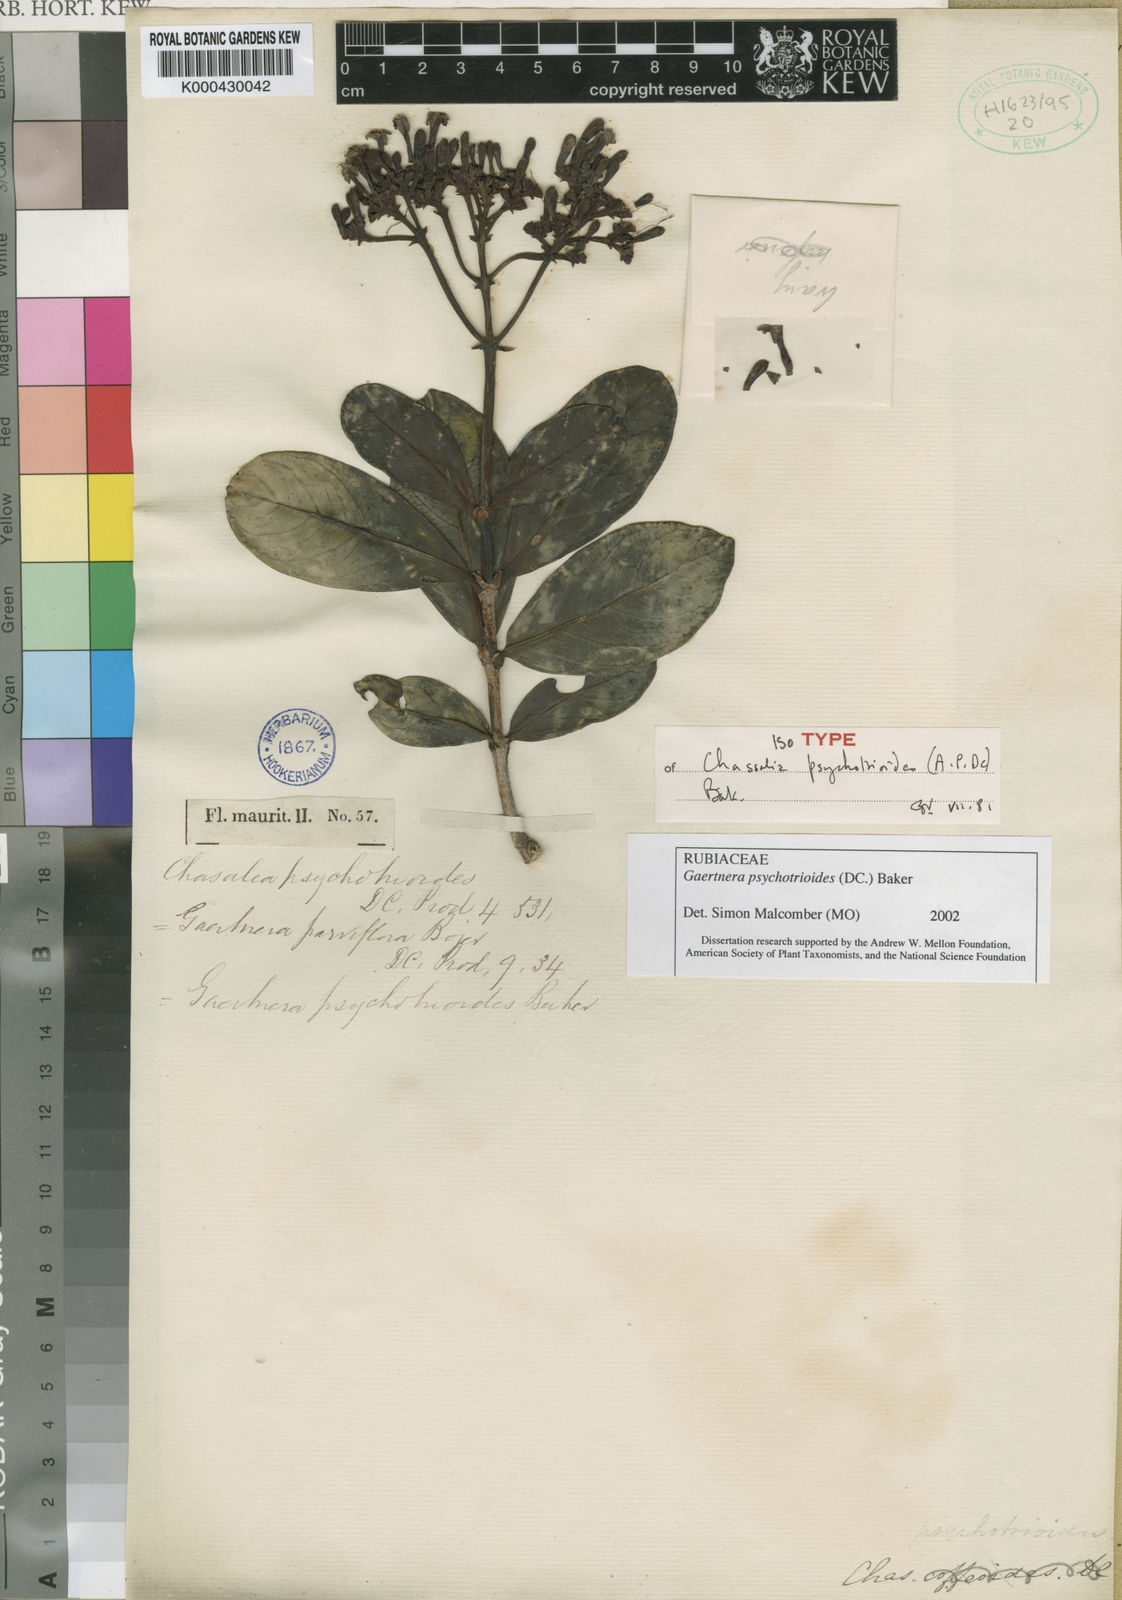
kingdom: Plantae
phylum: Tracheophyta
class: Magnoliopsida
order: Gentianales
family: Rubiaceae
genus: Gaertnera
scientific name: Gaertnera psychotrioides
